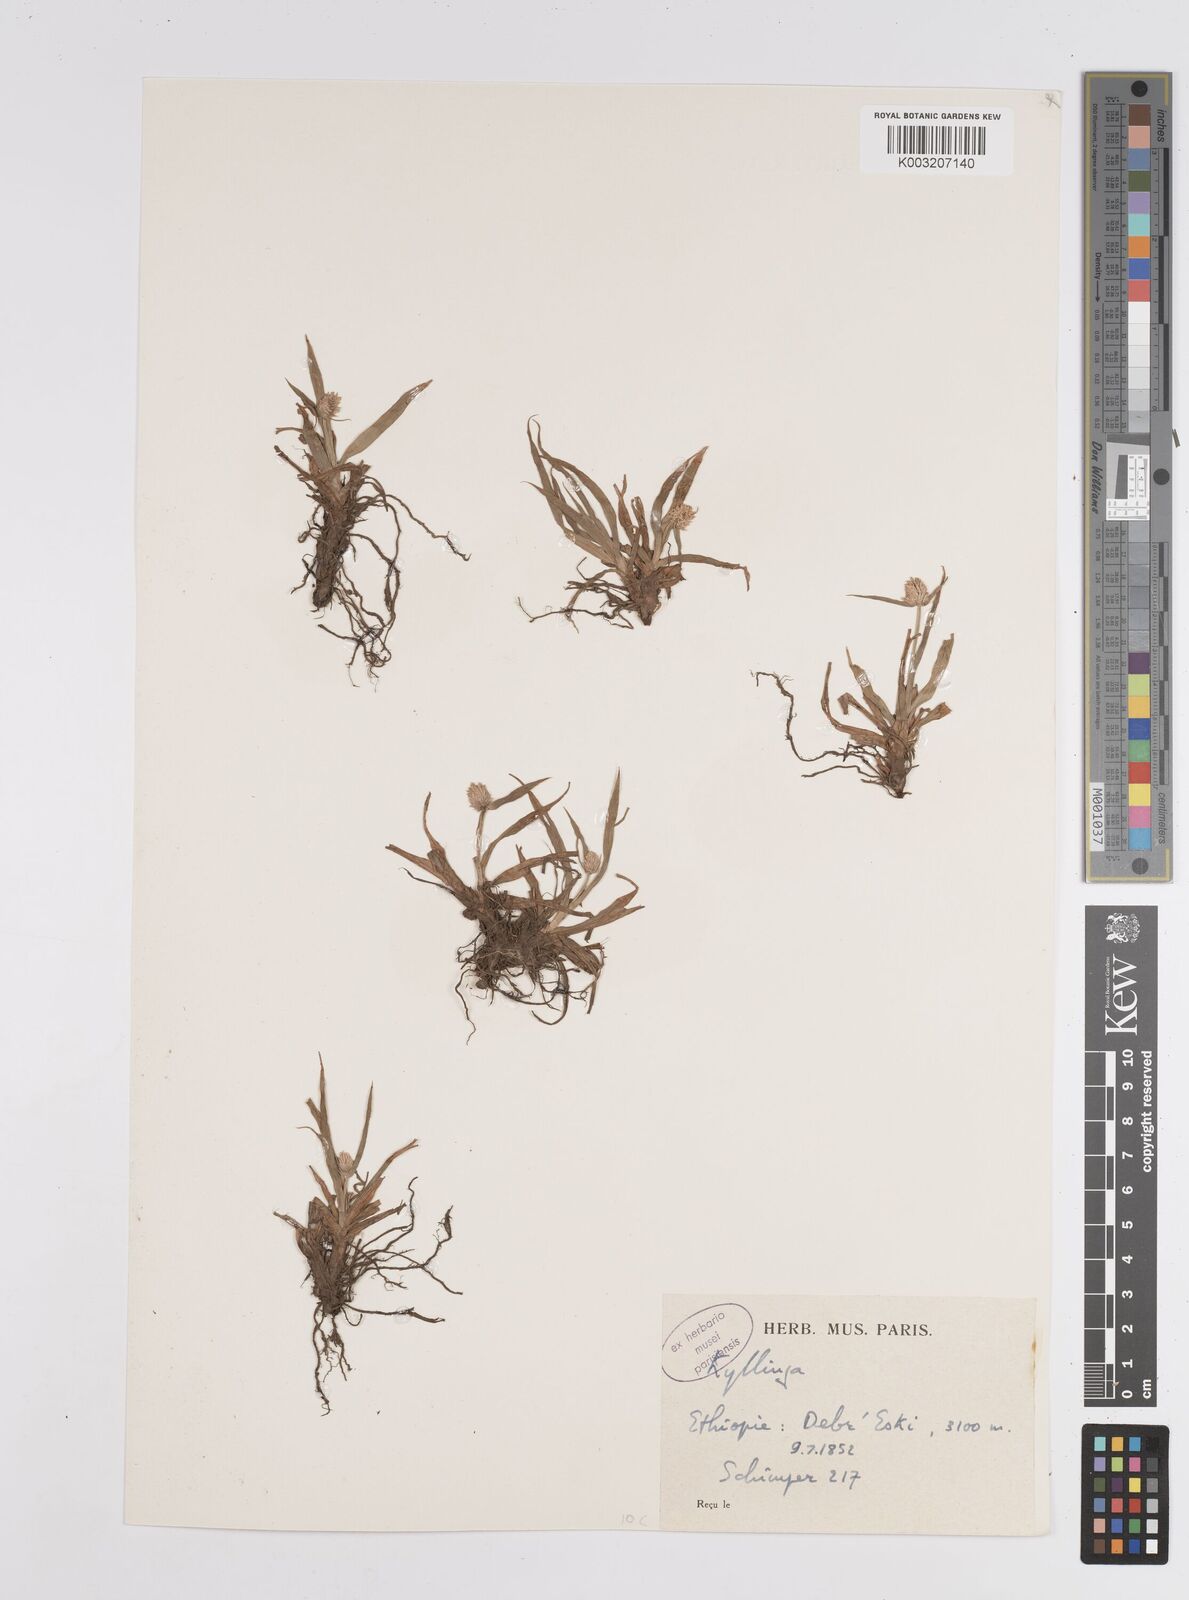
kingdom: Plantae
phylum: Tracheophyta
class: Liliopsida
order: Poales
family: Cyperaceae
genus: Cyperus
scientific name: Cyperus
